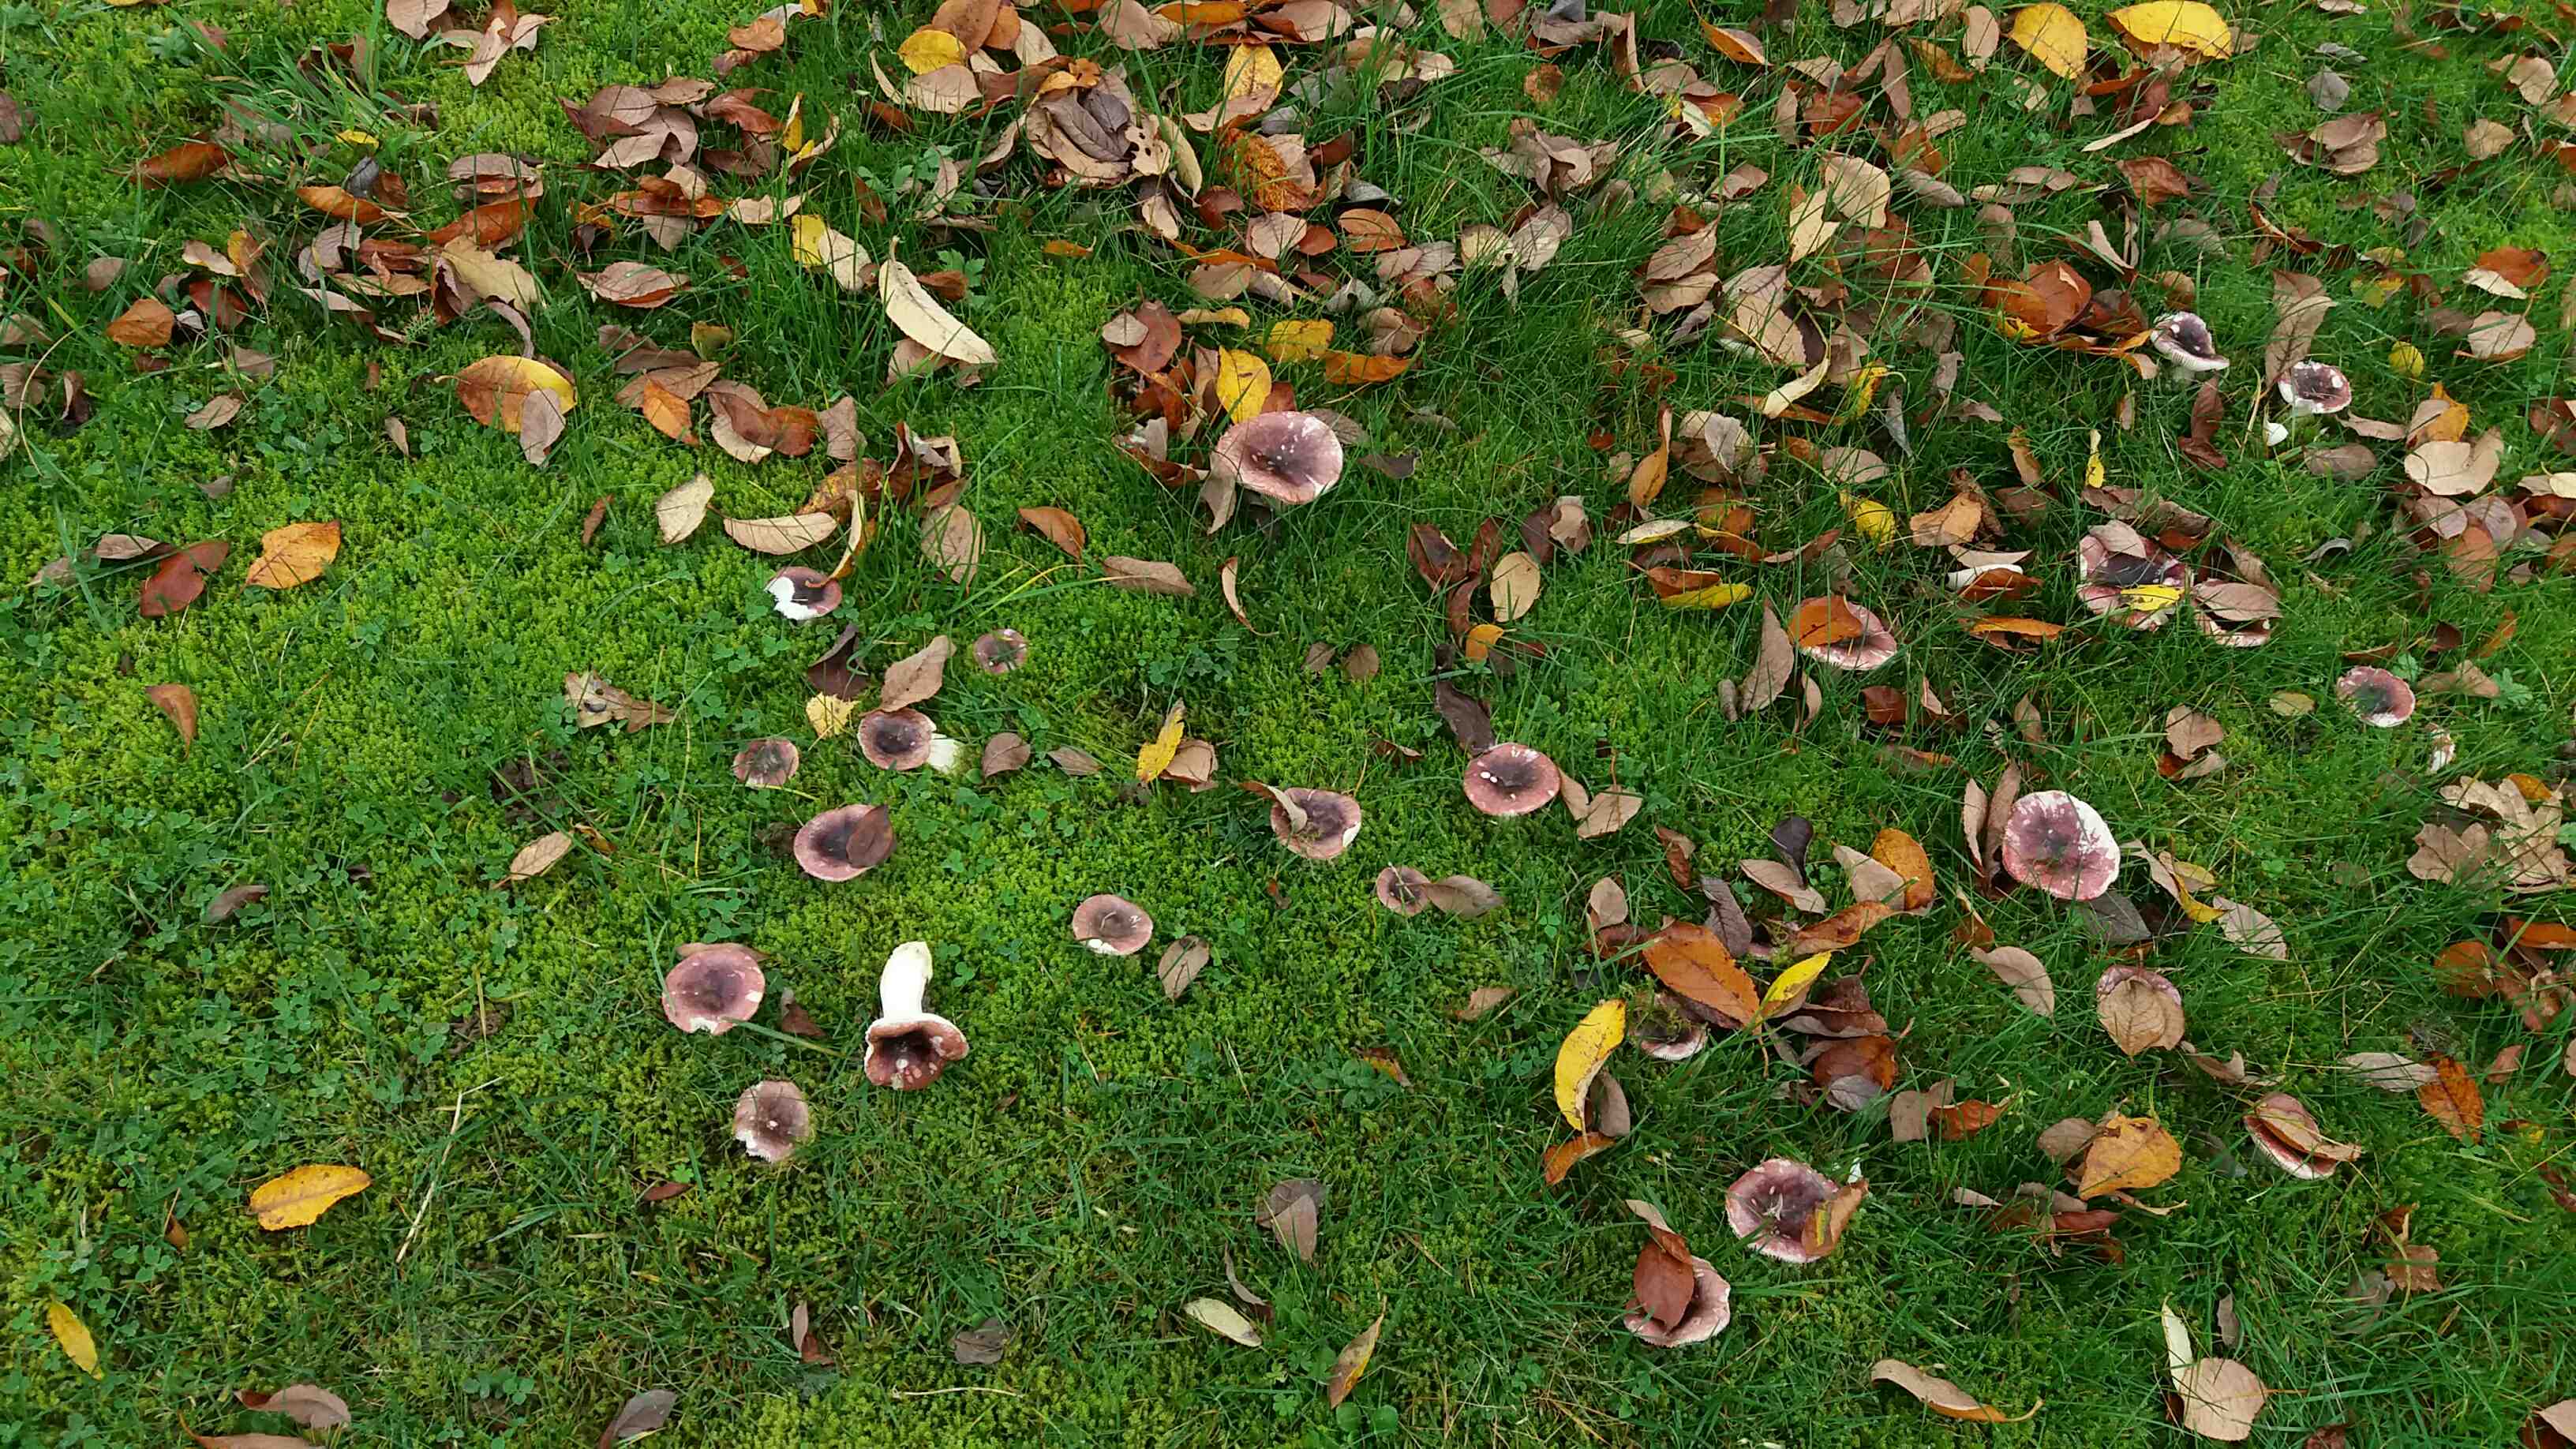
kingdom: Fungi
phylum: Basidiomycota
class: Agaricomycetes
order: Russulales
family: Russulaceae
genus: Russula
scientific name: Russula laccata
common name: klit-skørhat
